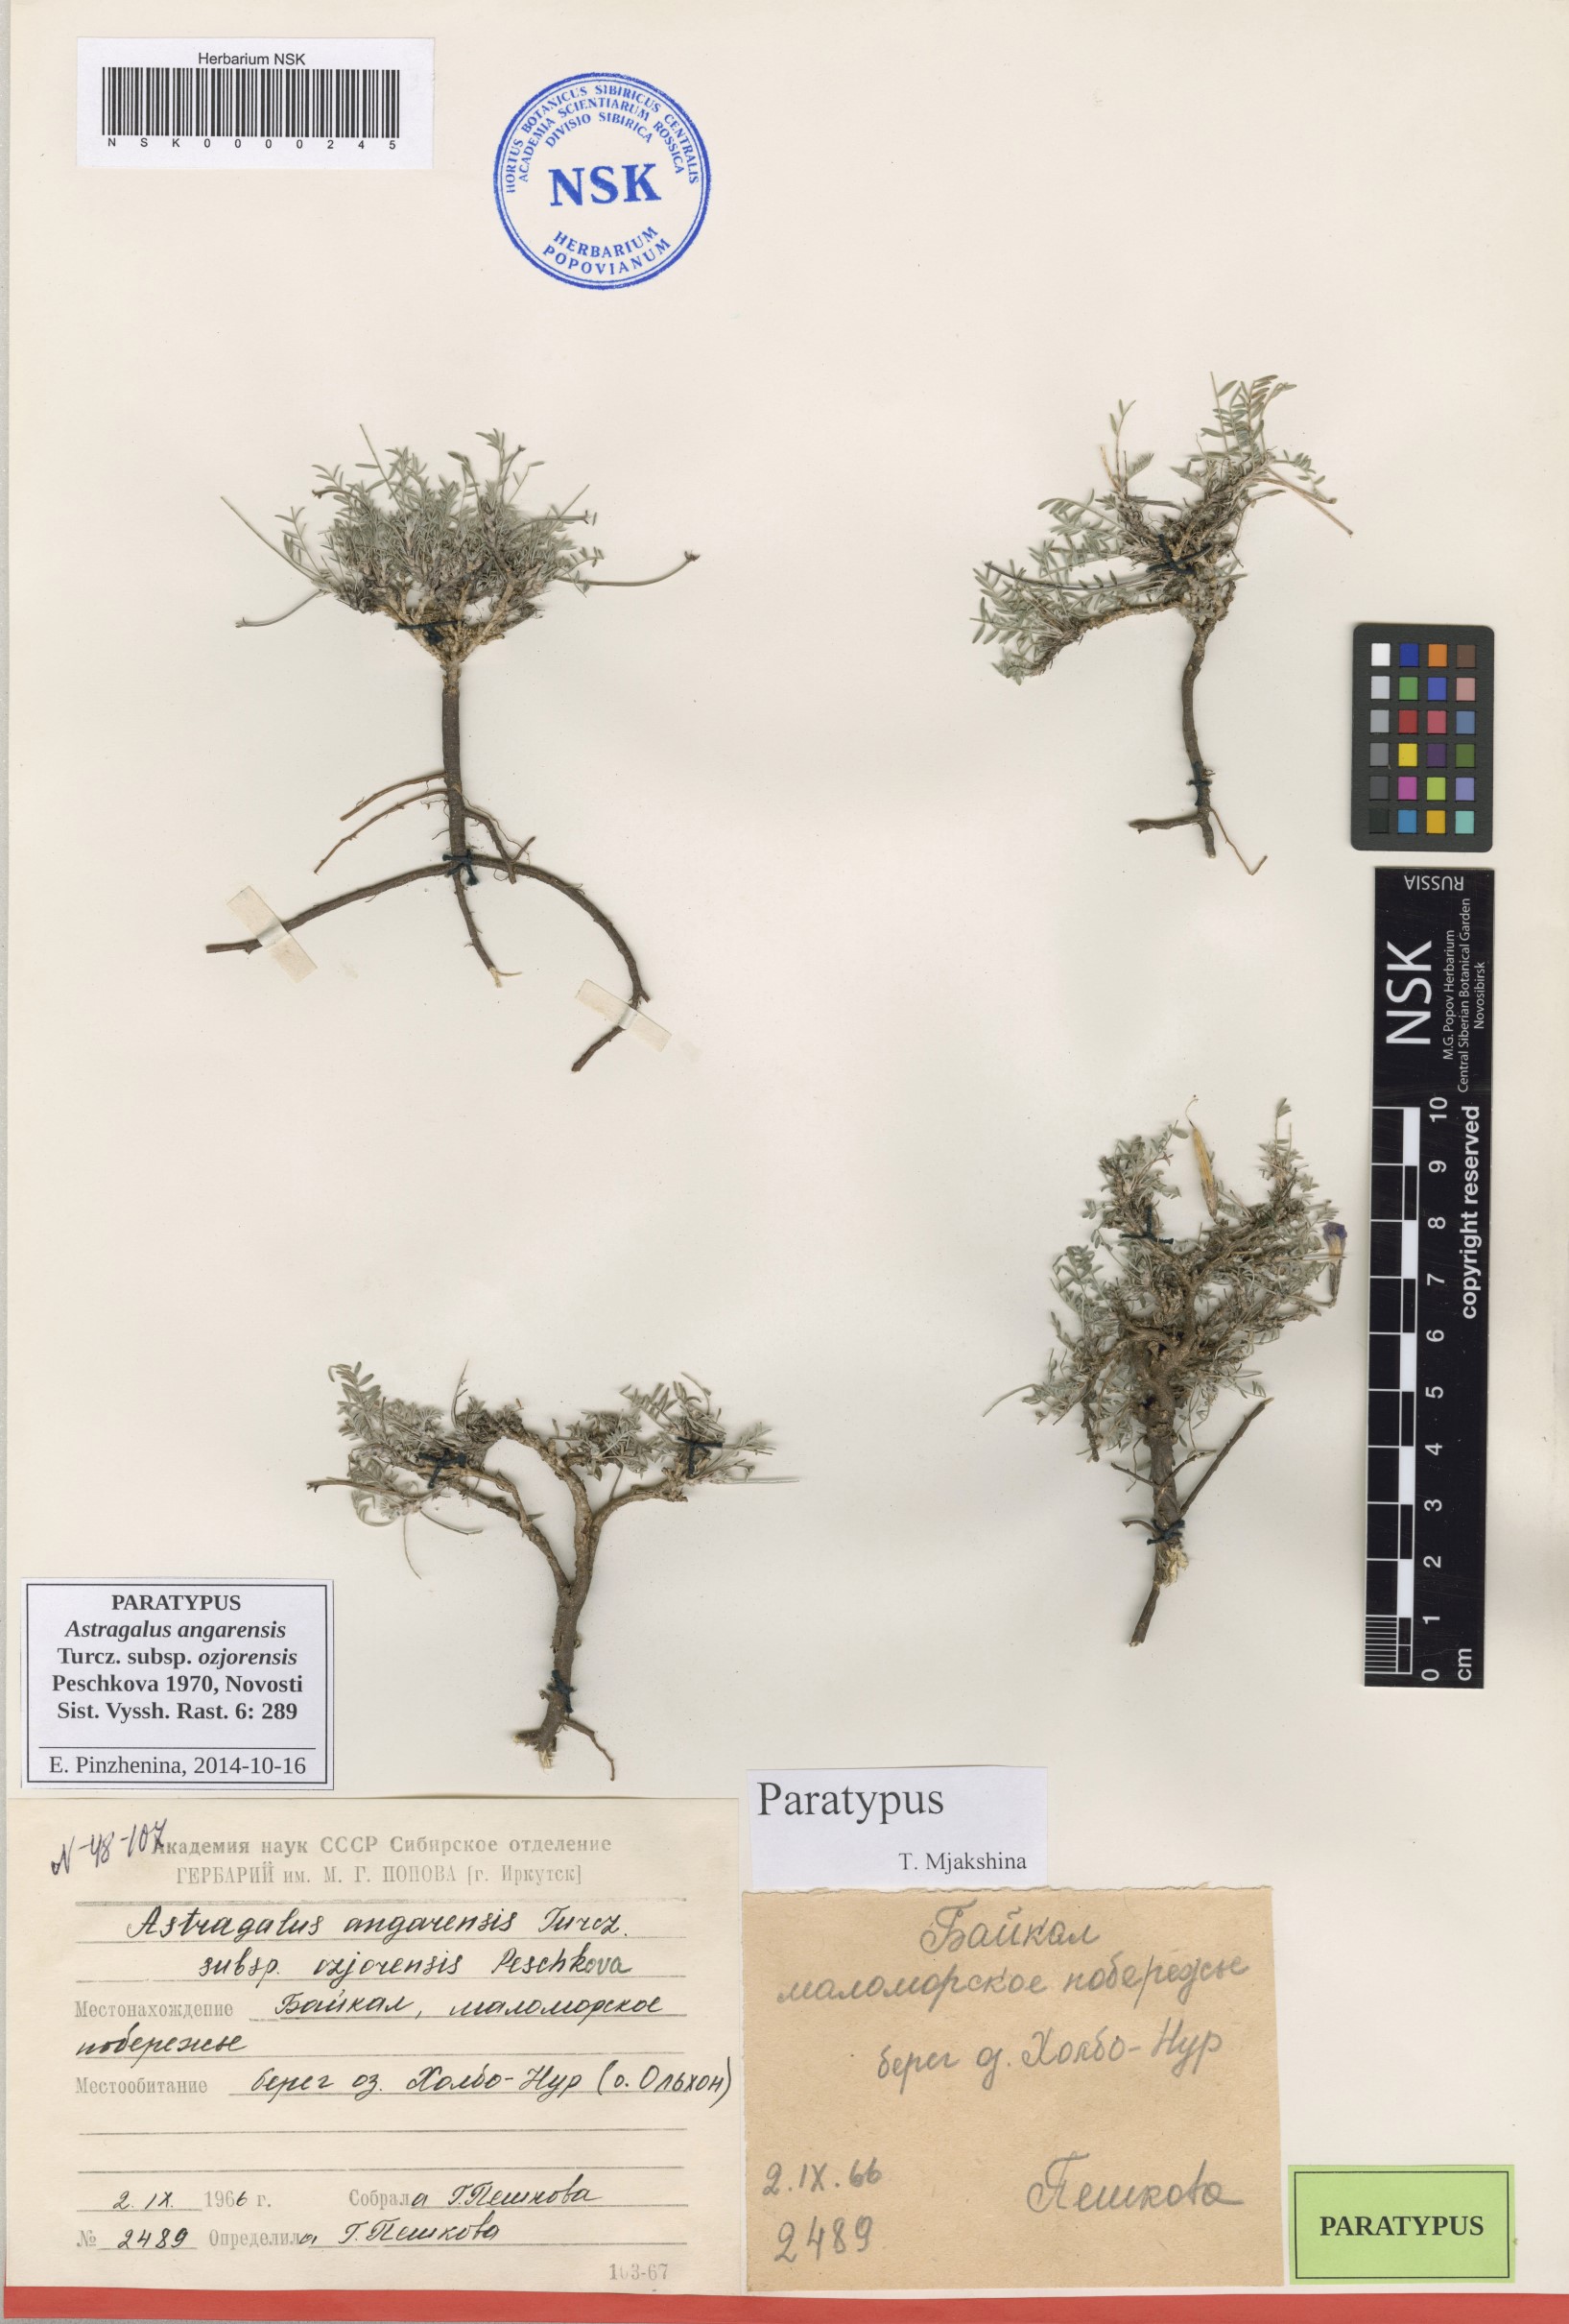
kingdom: Plantae
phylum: Tracheophyta
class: Magnoliopsida
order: Fabales
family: Fabaceae
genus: Astragalus
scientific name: Astragalus angarensis
